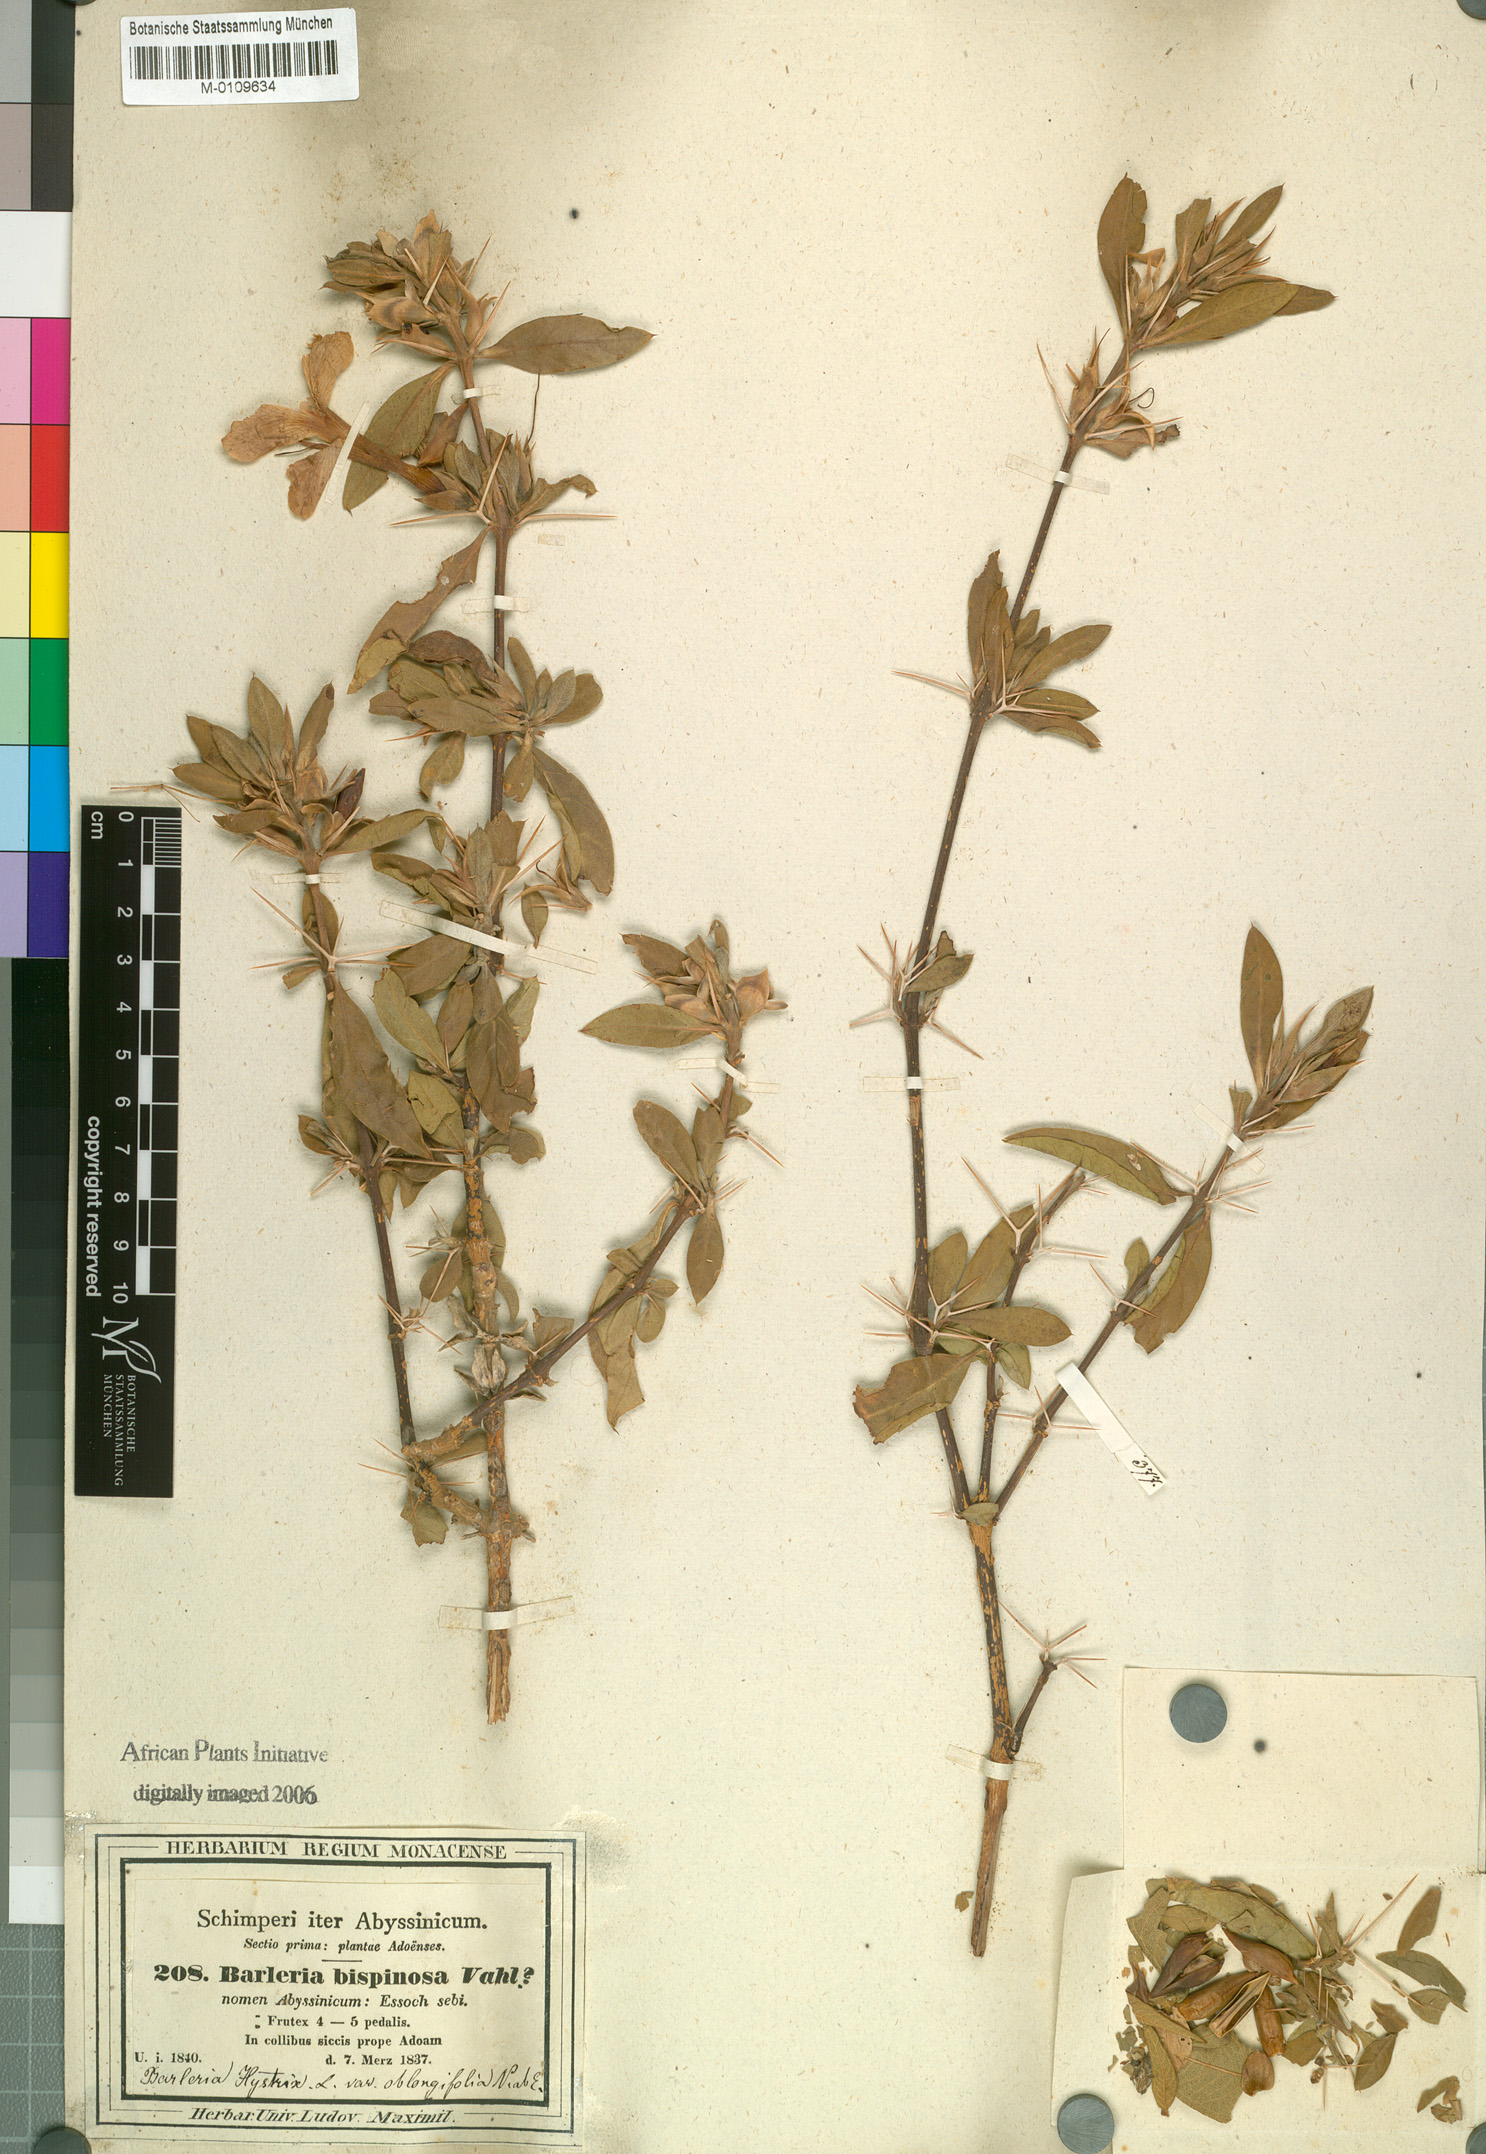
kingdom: Plantae
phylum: Tracheophyta
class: Magnoliopsida
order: Lamiales
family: Acanthaceae
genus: Barleria
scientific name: Barleria prionitis
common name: Barleria
